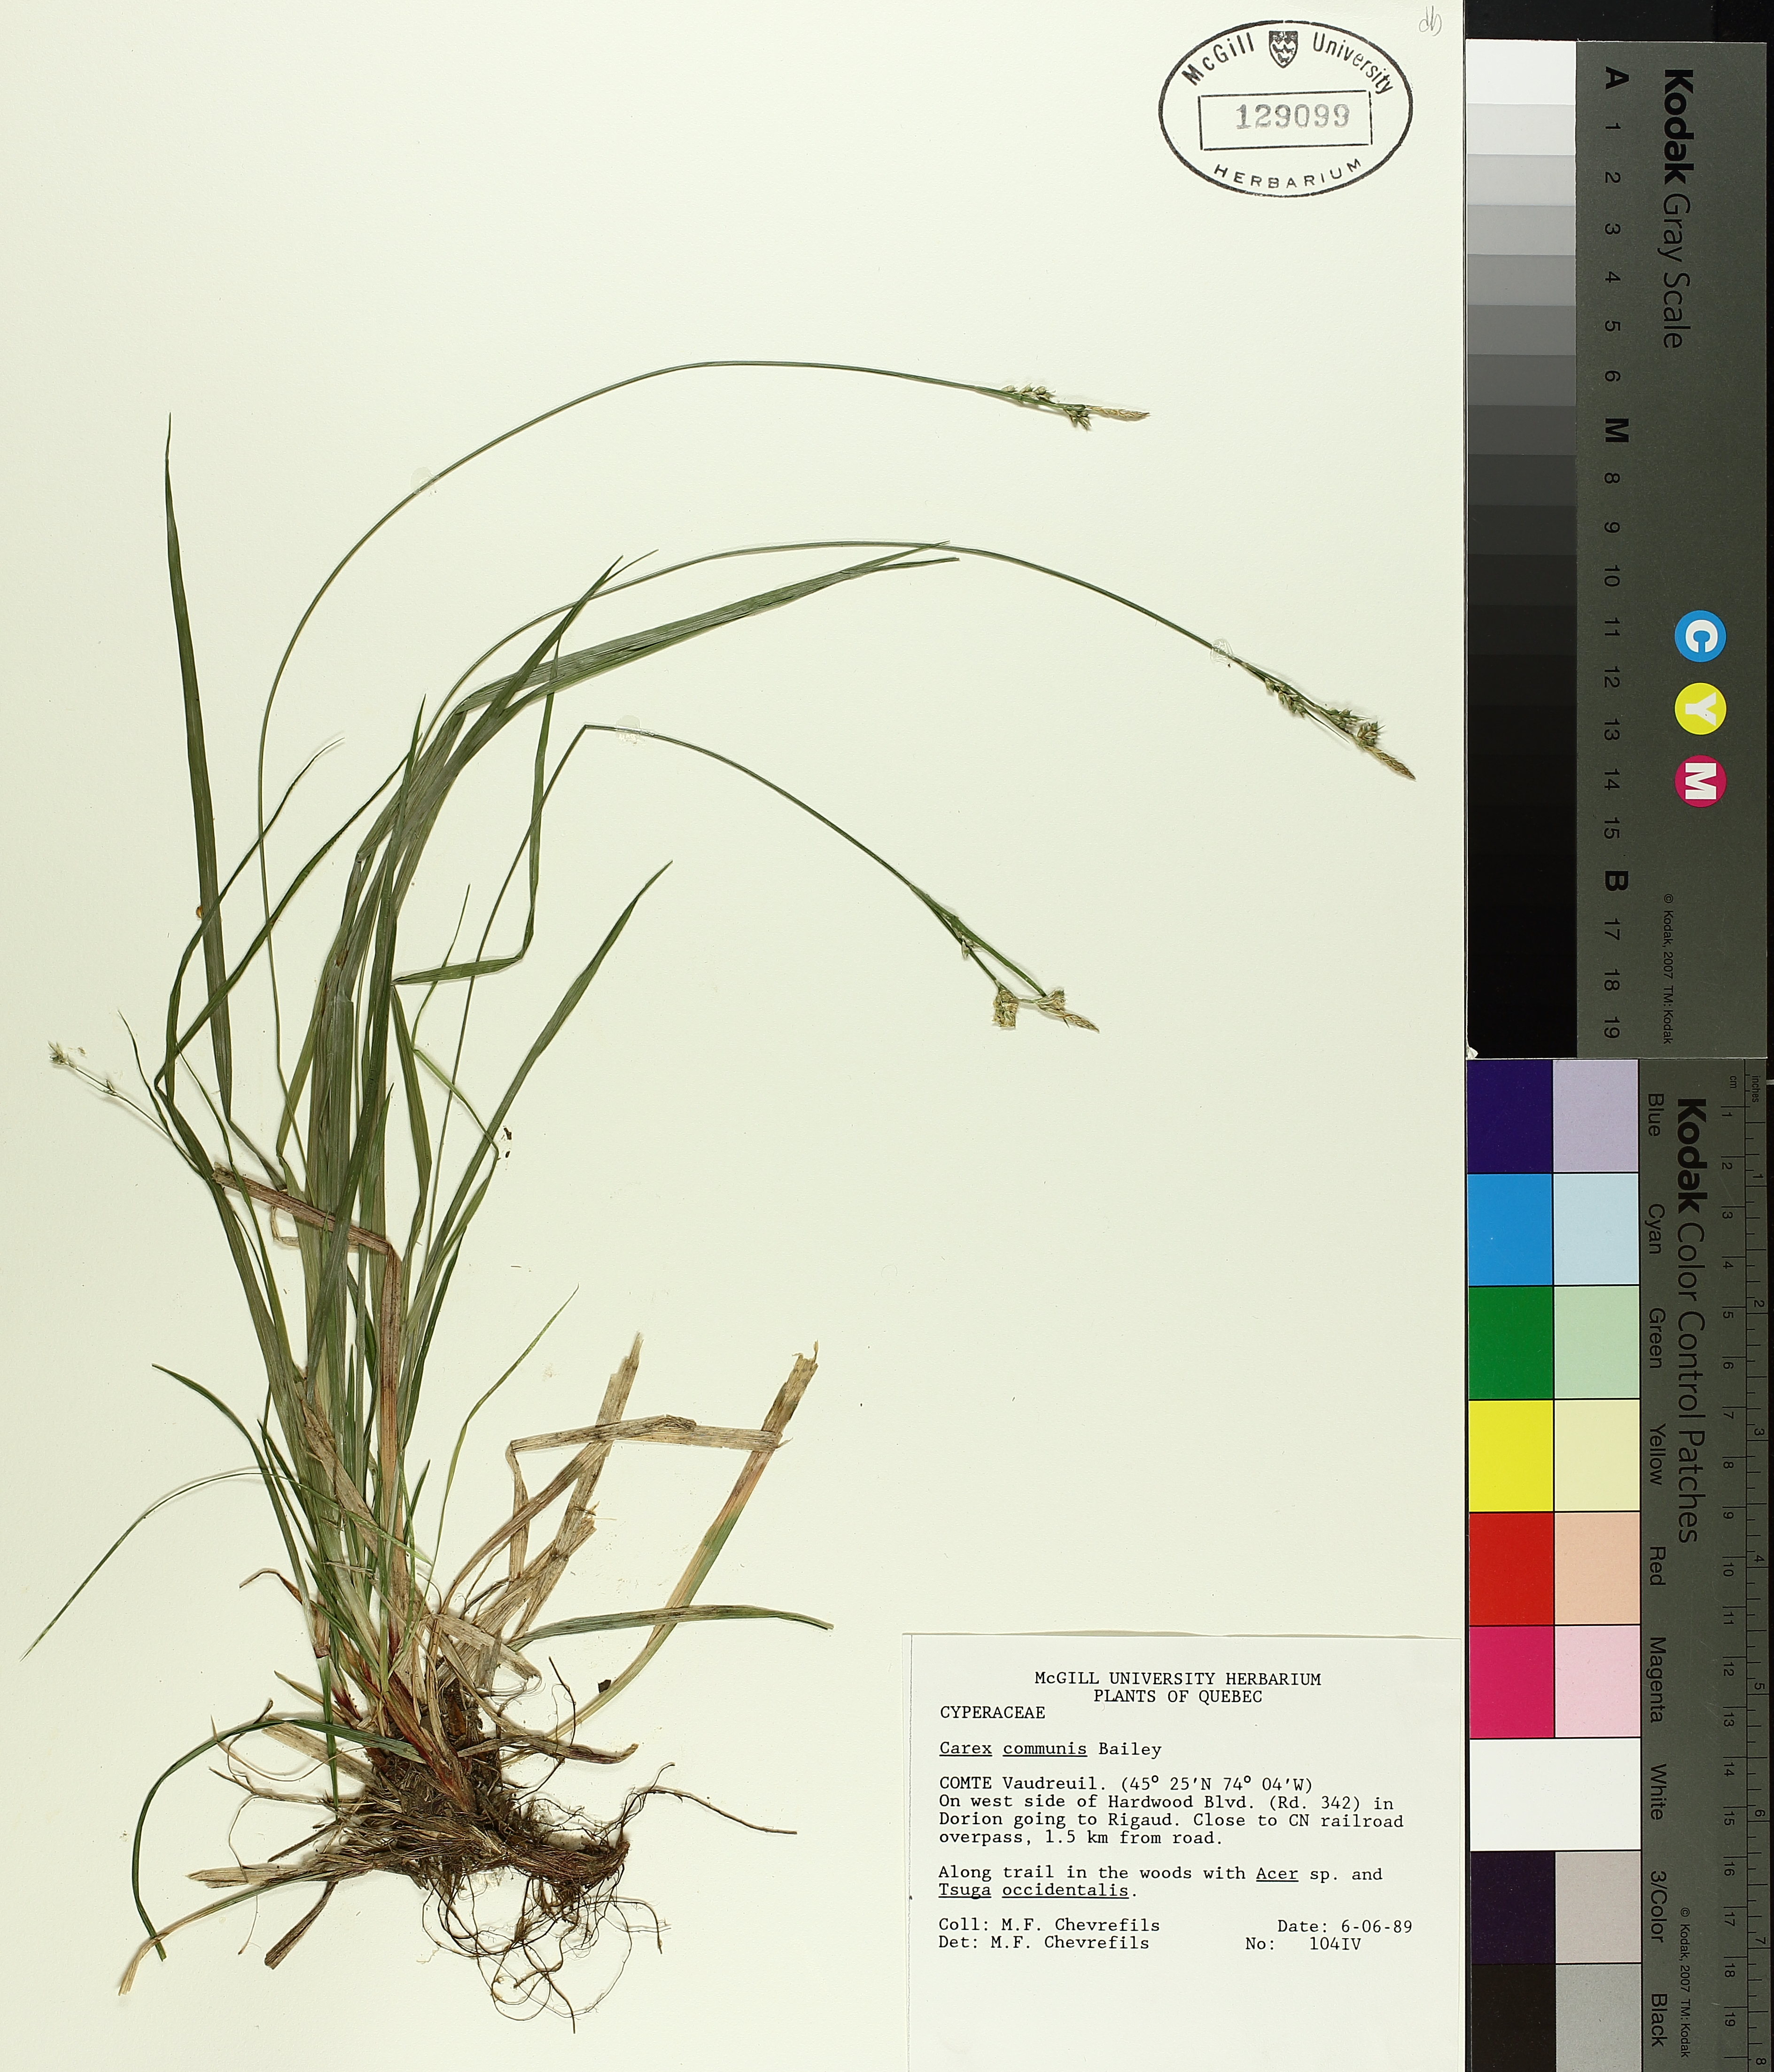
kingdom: Plantae
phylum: Tracheophyta
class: Liliopsida
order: Poales
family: Cyperaceae
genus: Carex
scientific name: Carex communis
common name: Colonial oak sedge
